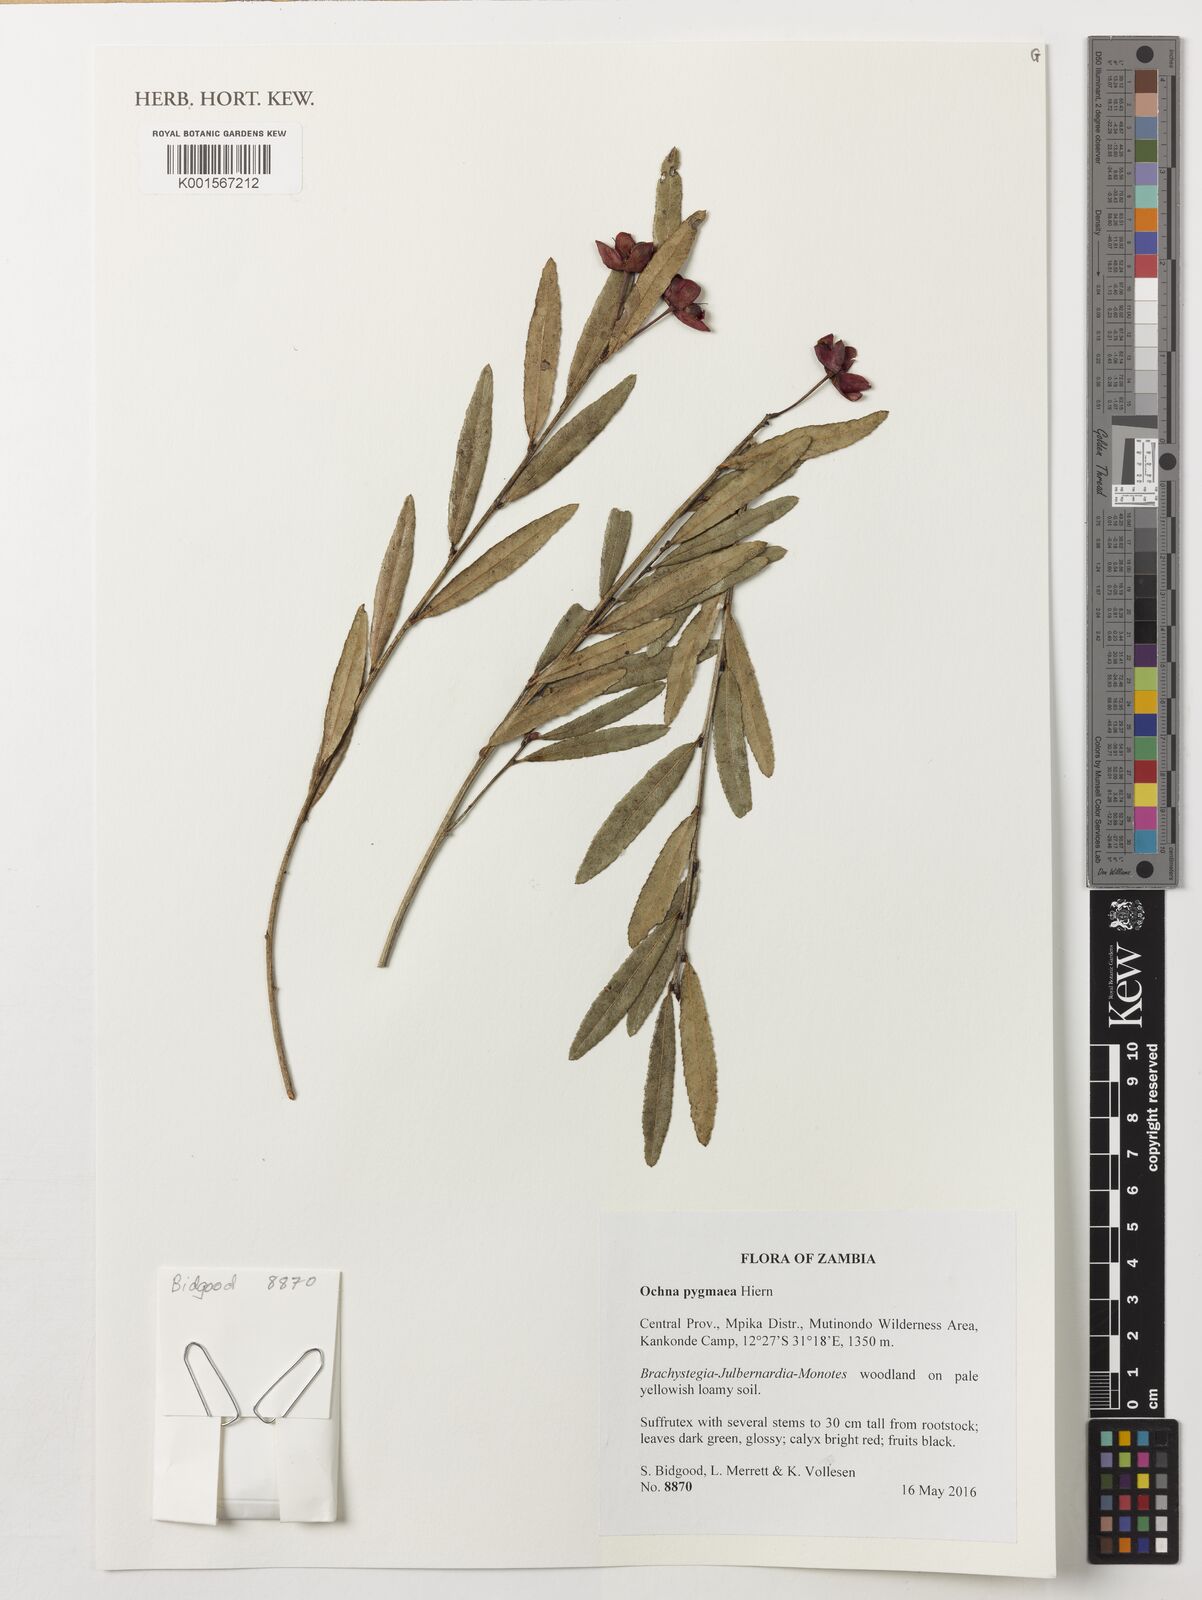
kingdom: Plantae
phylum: Tracheophyta
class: Magnoliopsida
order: Malpighiales
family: Ochnaceae
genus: Ochna
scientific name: Ochna pygmaea
